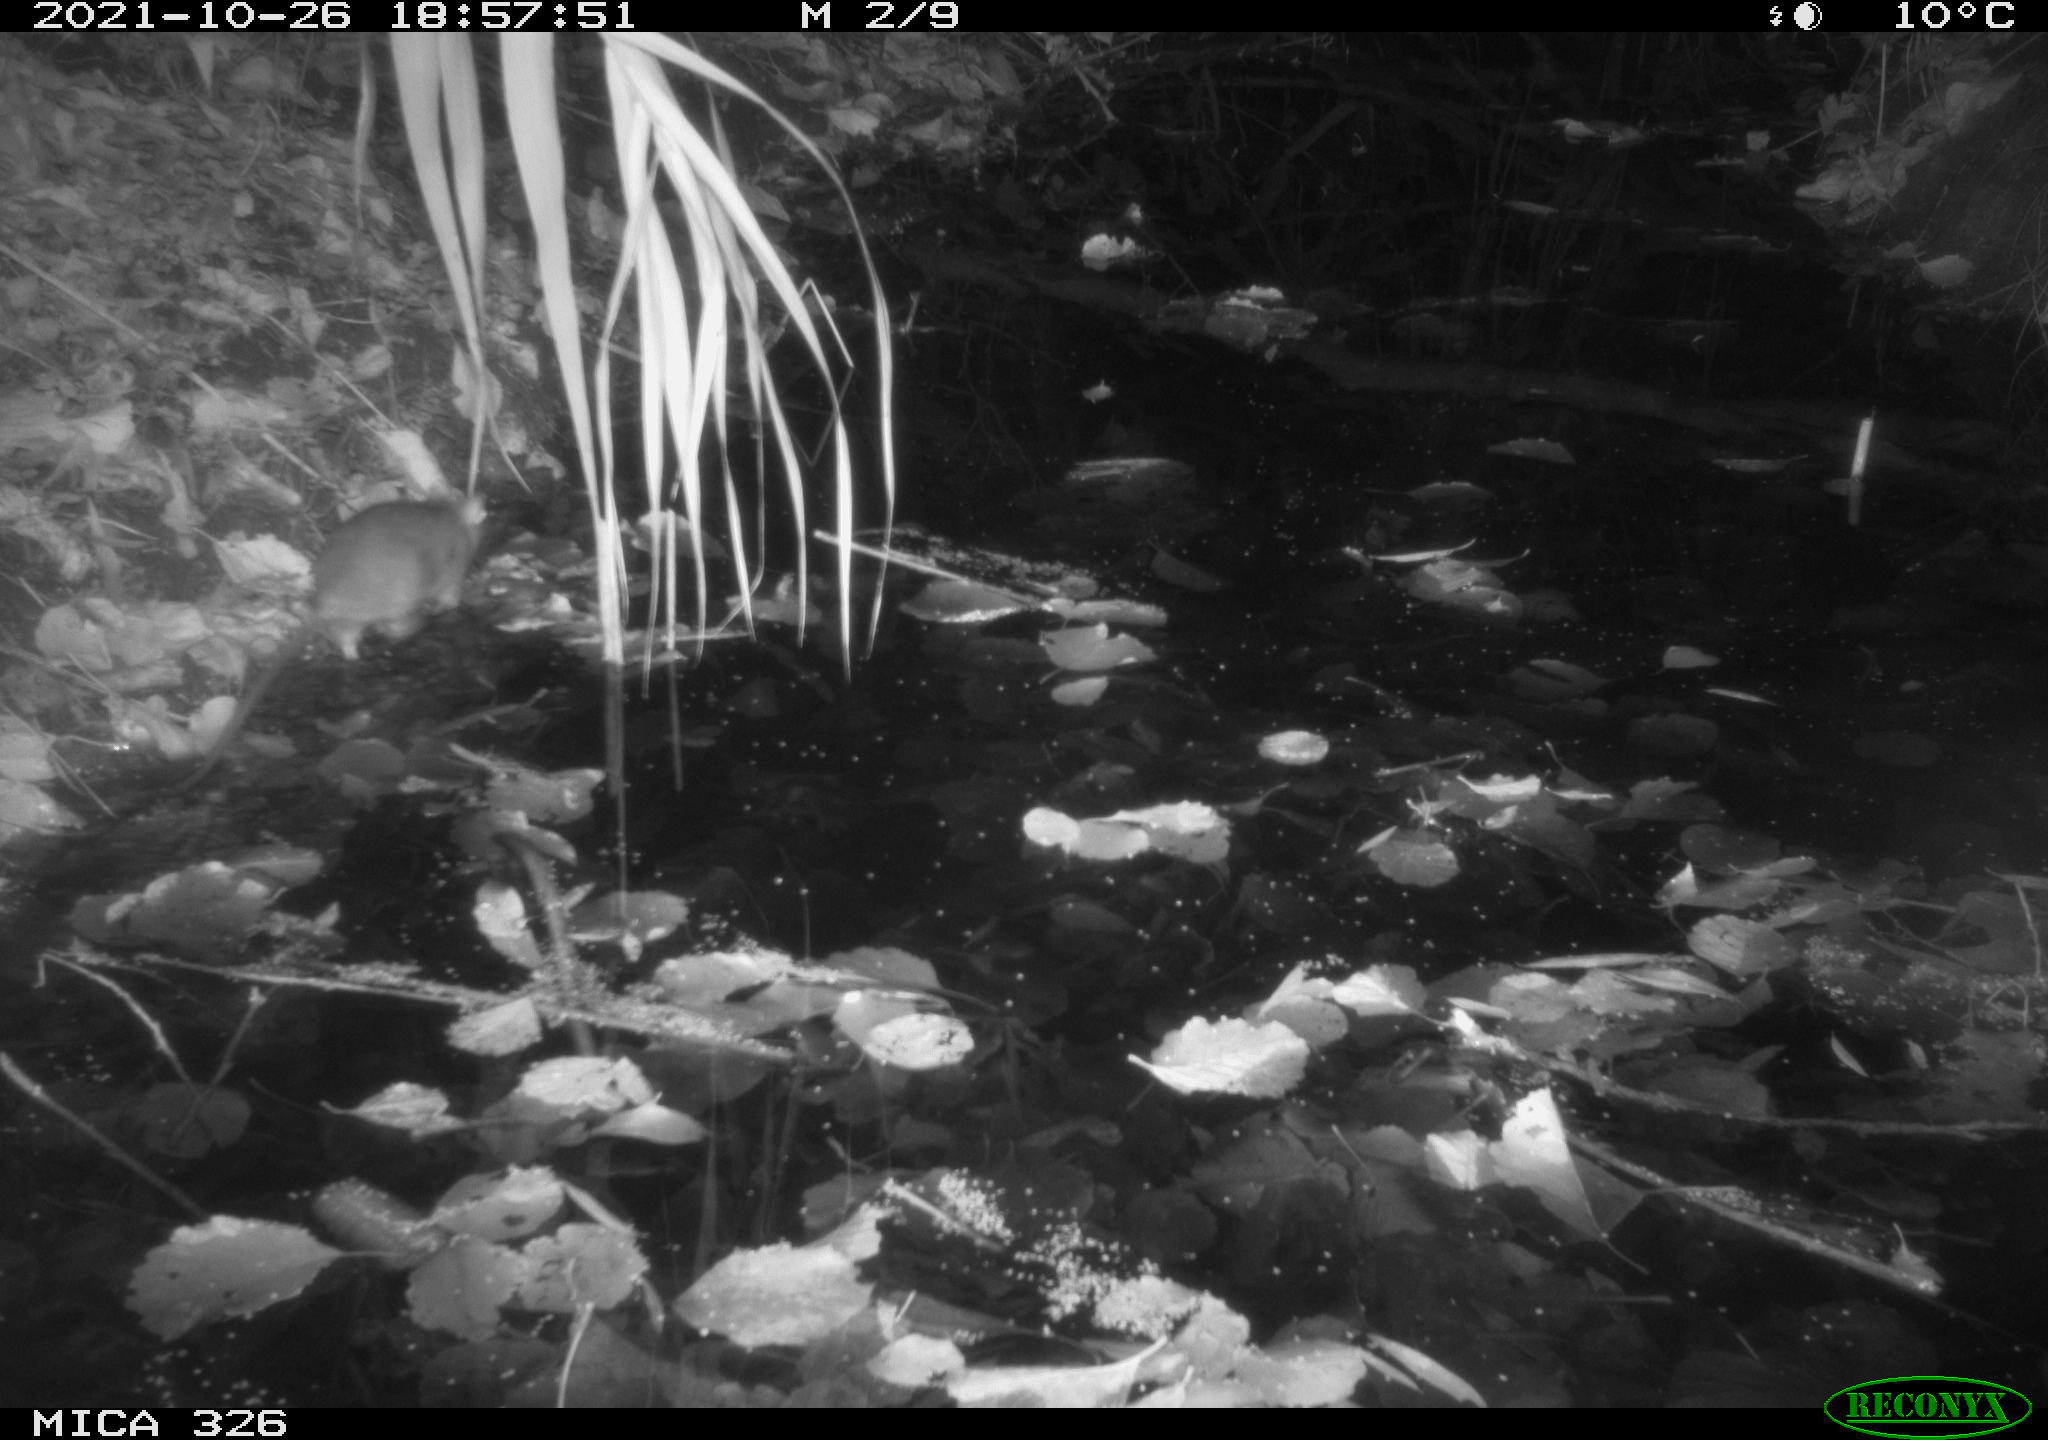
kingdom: Animalia
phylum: Chordata
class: Mammalia
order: Rodentia
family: Muridae
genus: Rattus
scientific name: Rattus norvegicus
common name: Brown rat
